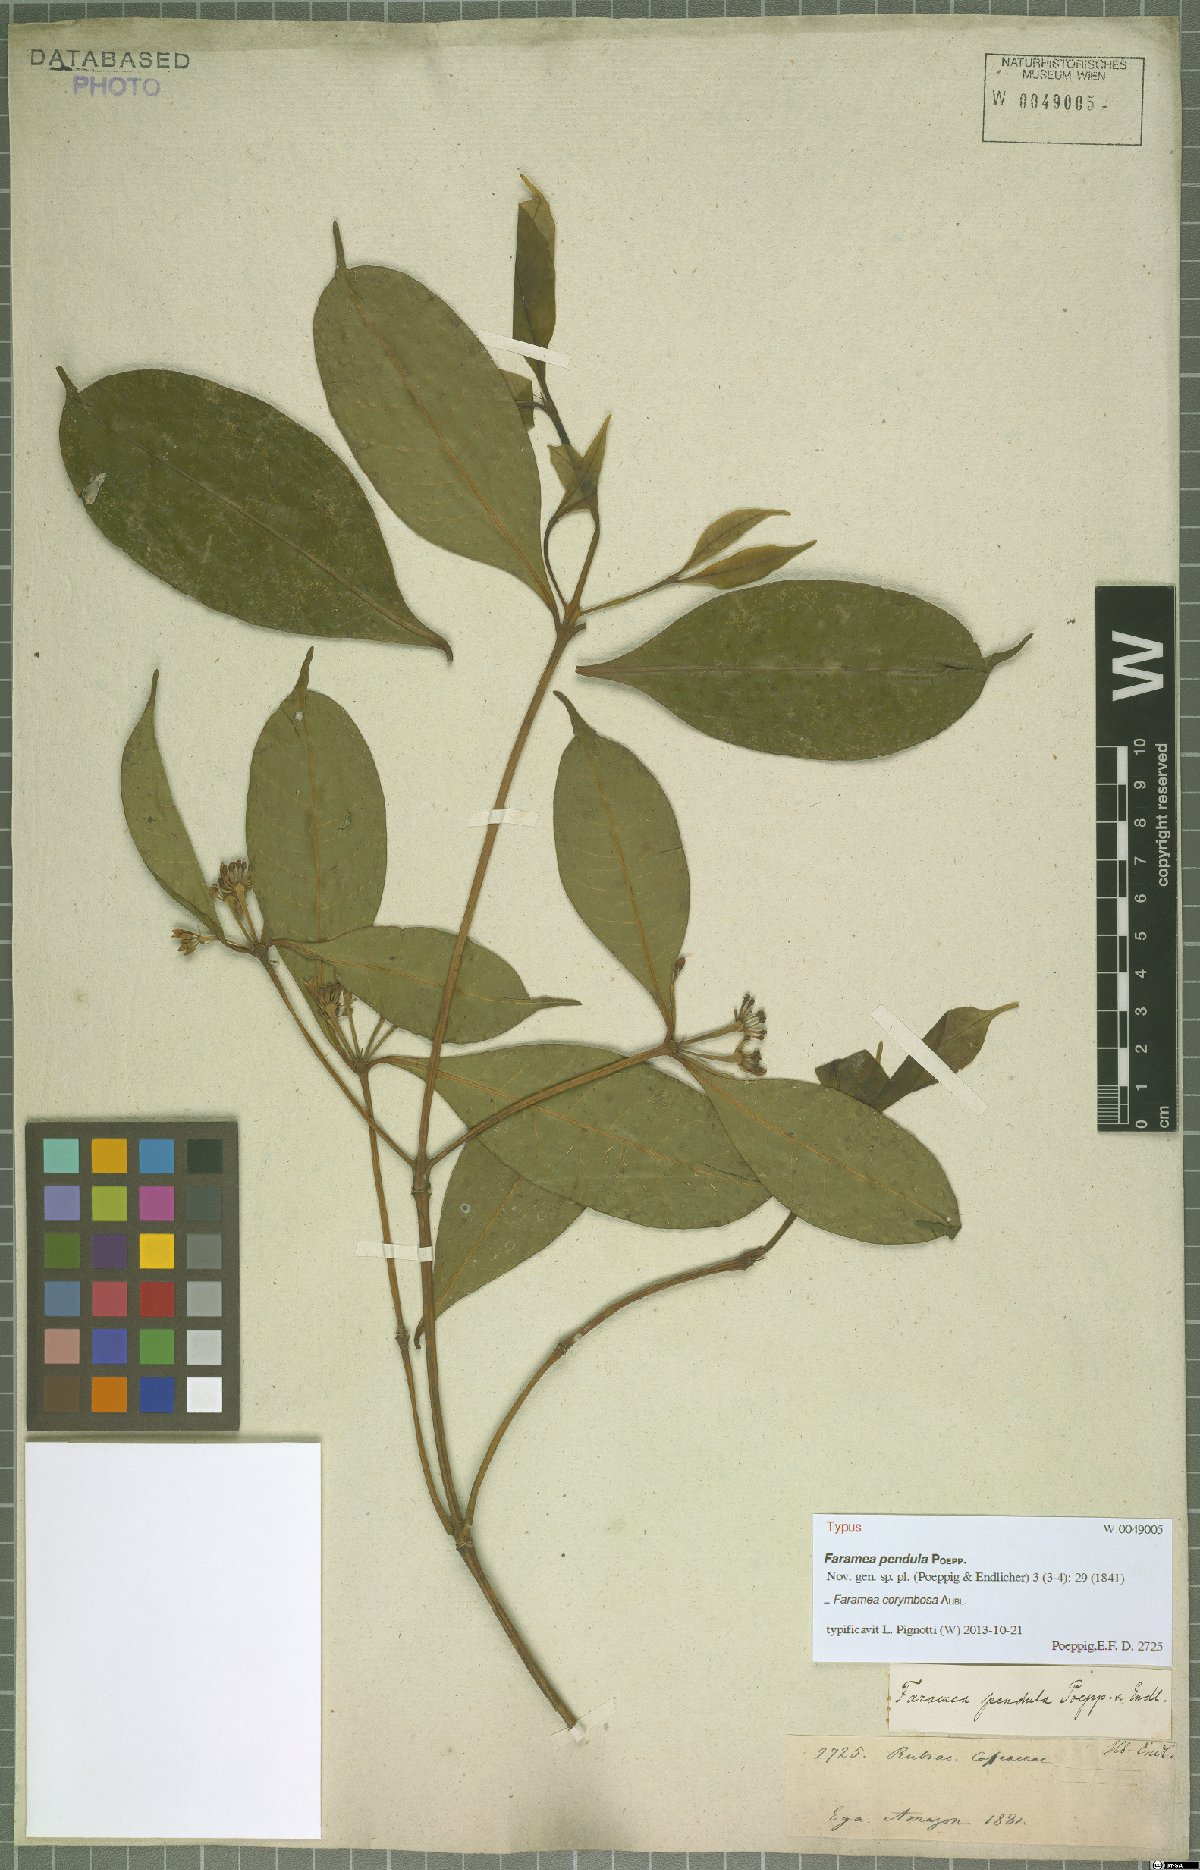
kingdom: Plantae
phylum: Tracheophyta
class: Magnoliopsida
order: Gentianales
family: Rubiaceae
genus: Faramea
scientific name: Faramea corymbosa
